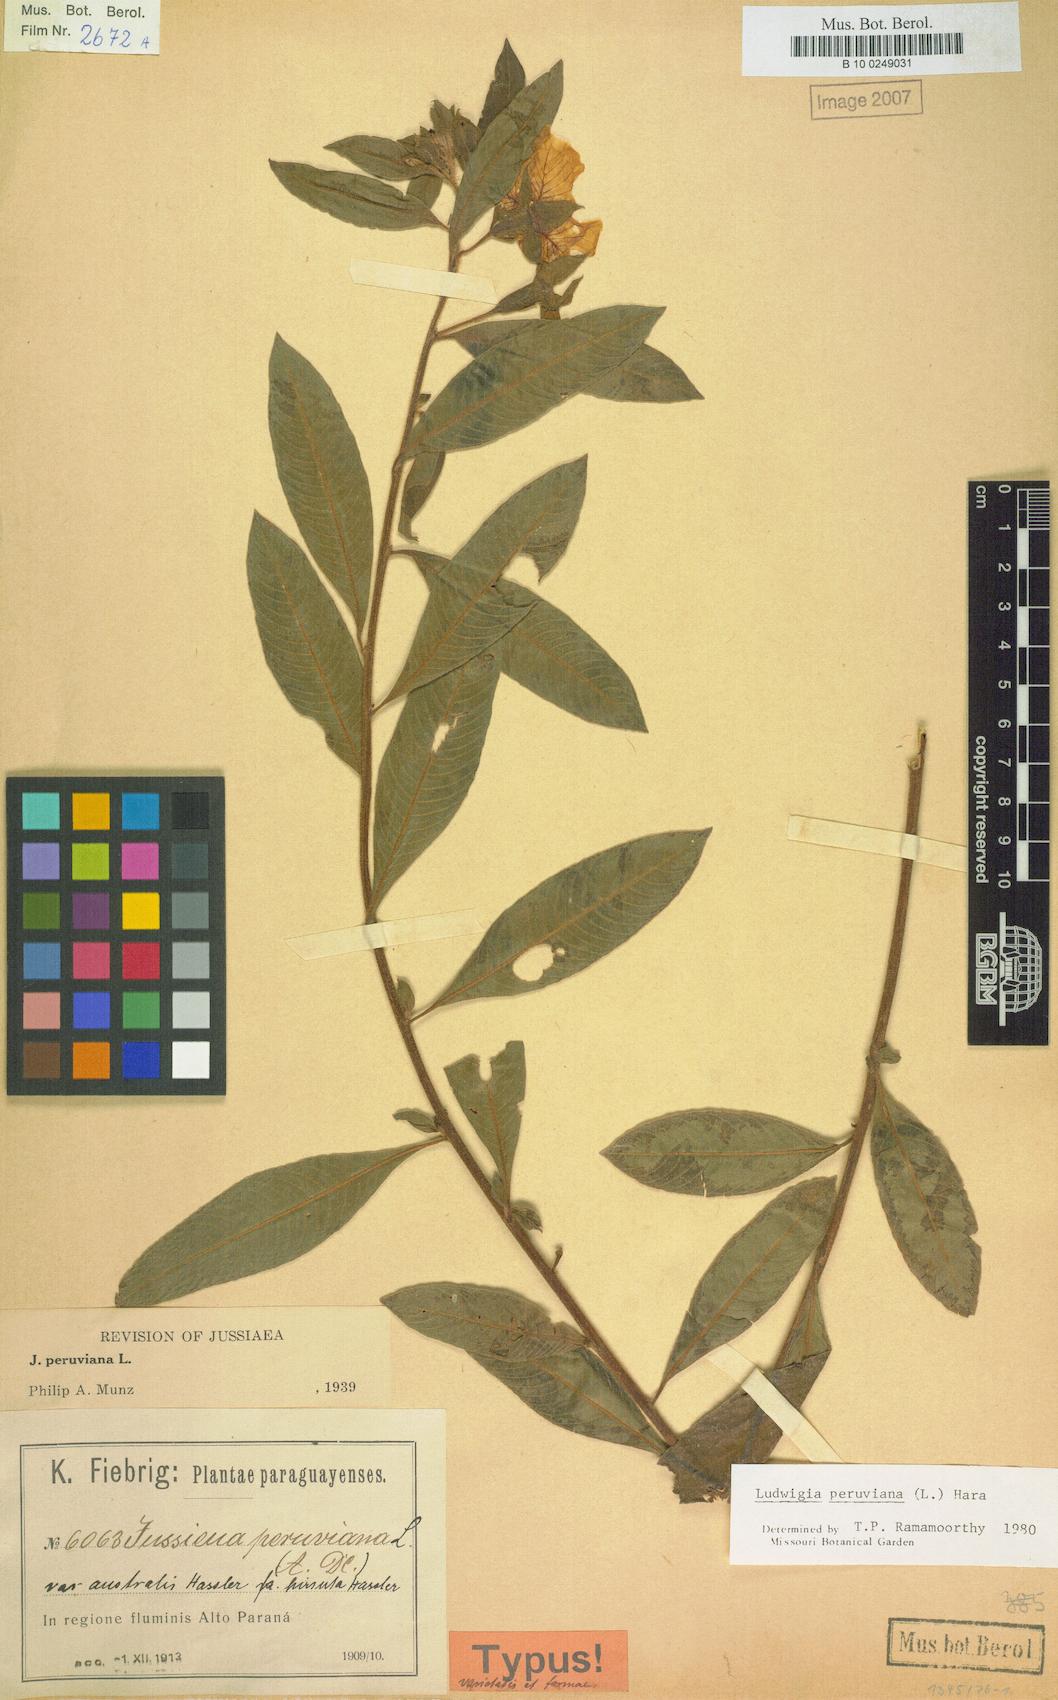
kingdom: Plantae
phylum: Tracheophyta
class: Magnoliopsida
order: Myrtales
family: Onagraceae
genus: Ludwigia
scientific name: Ludwigia peruviana
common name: Peruvian primrose-willow
